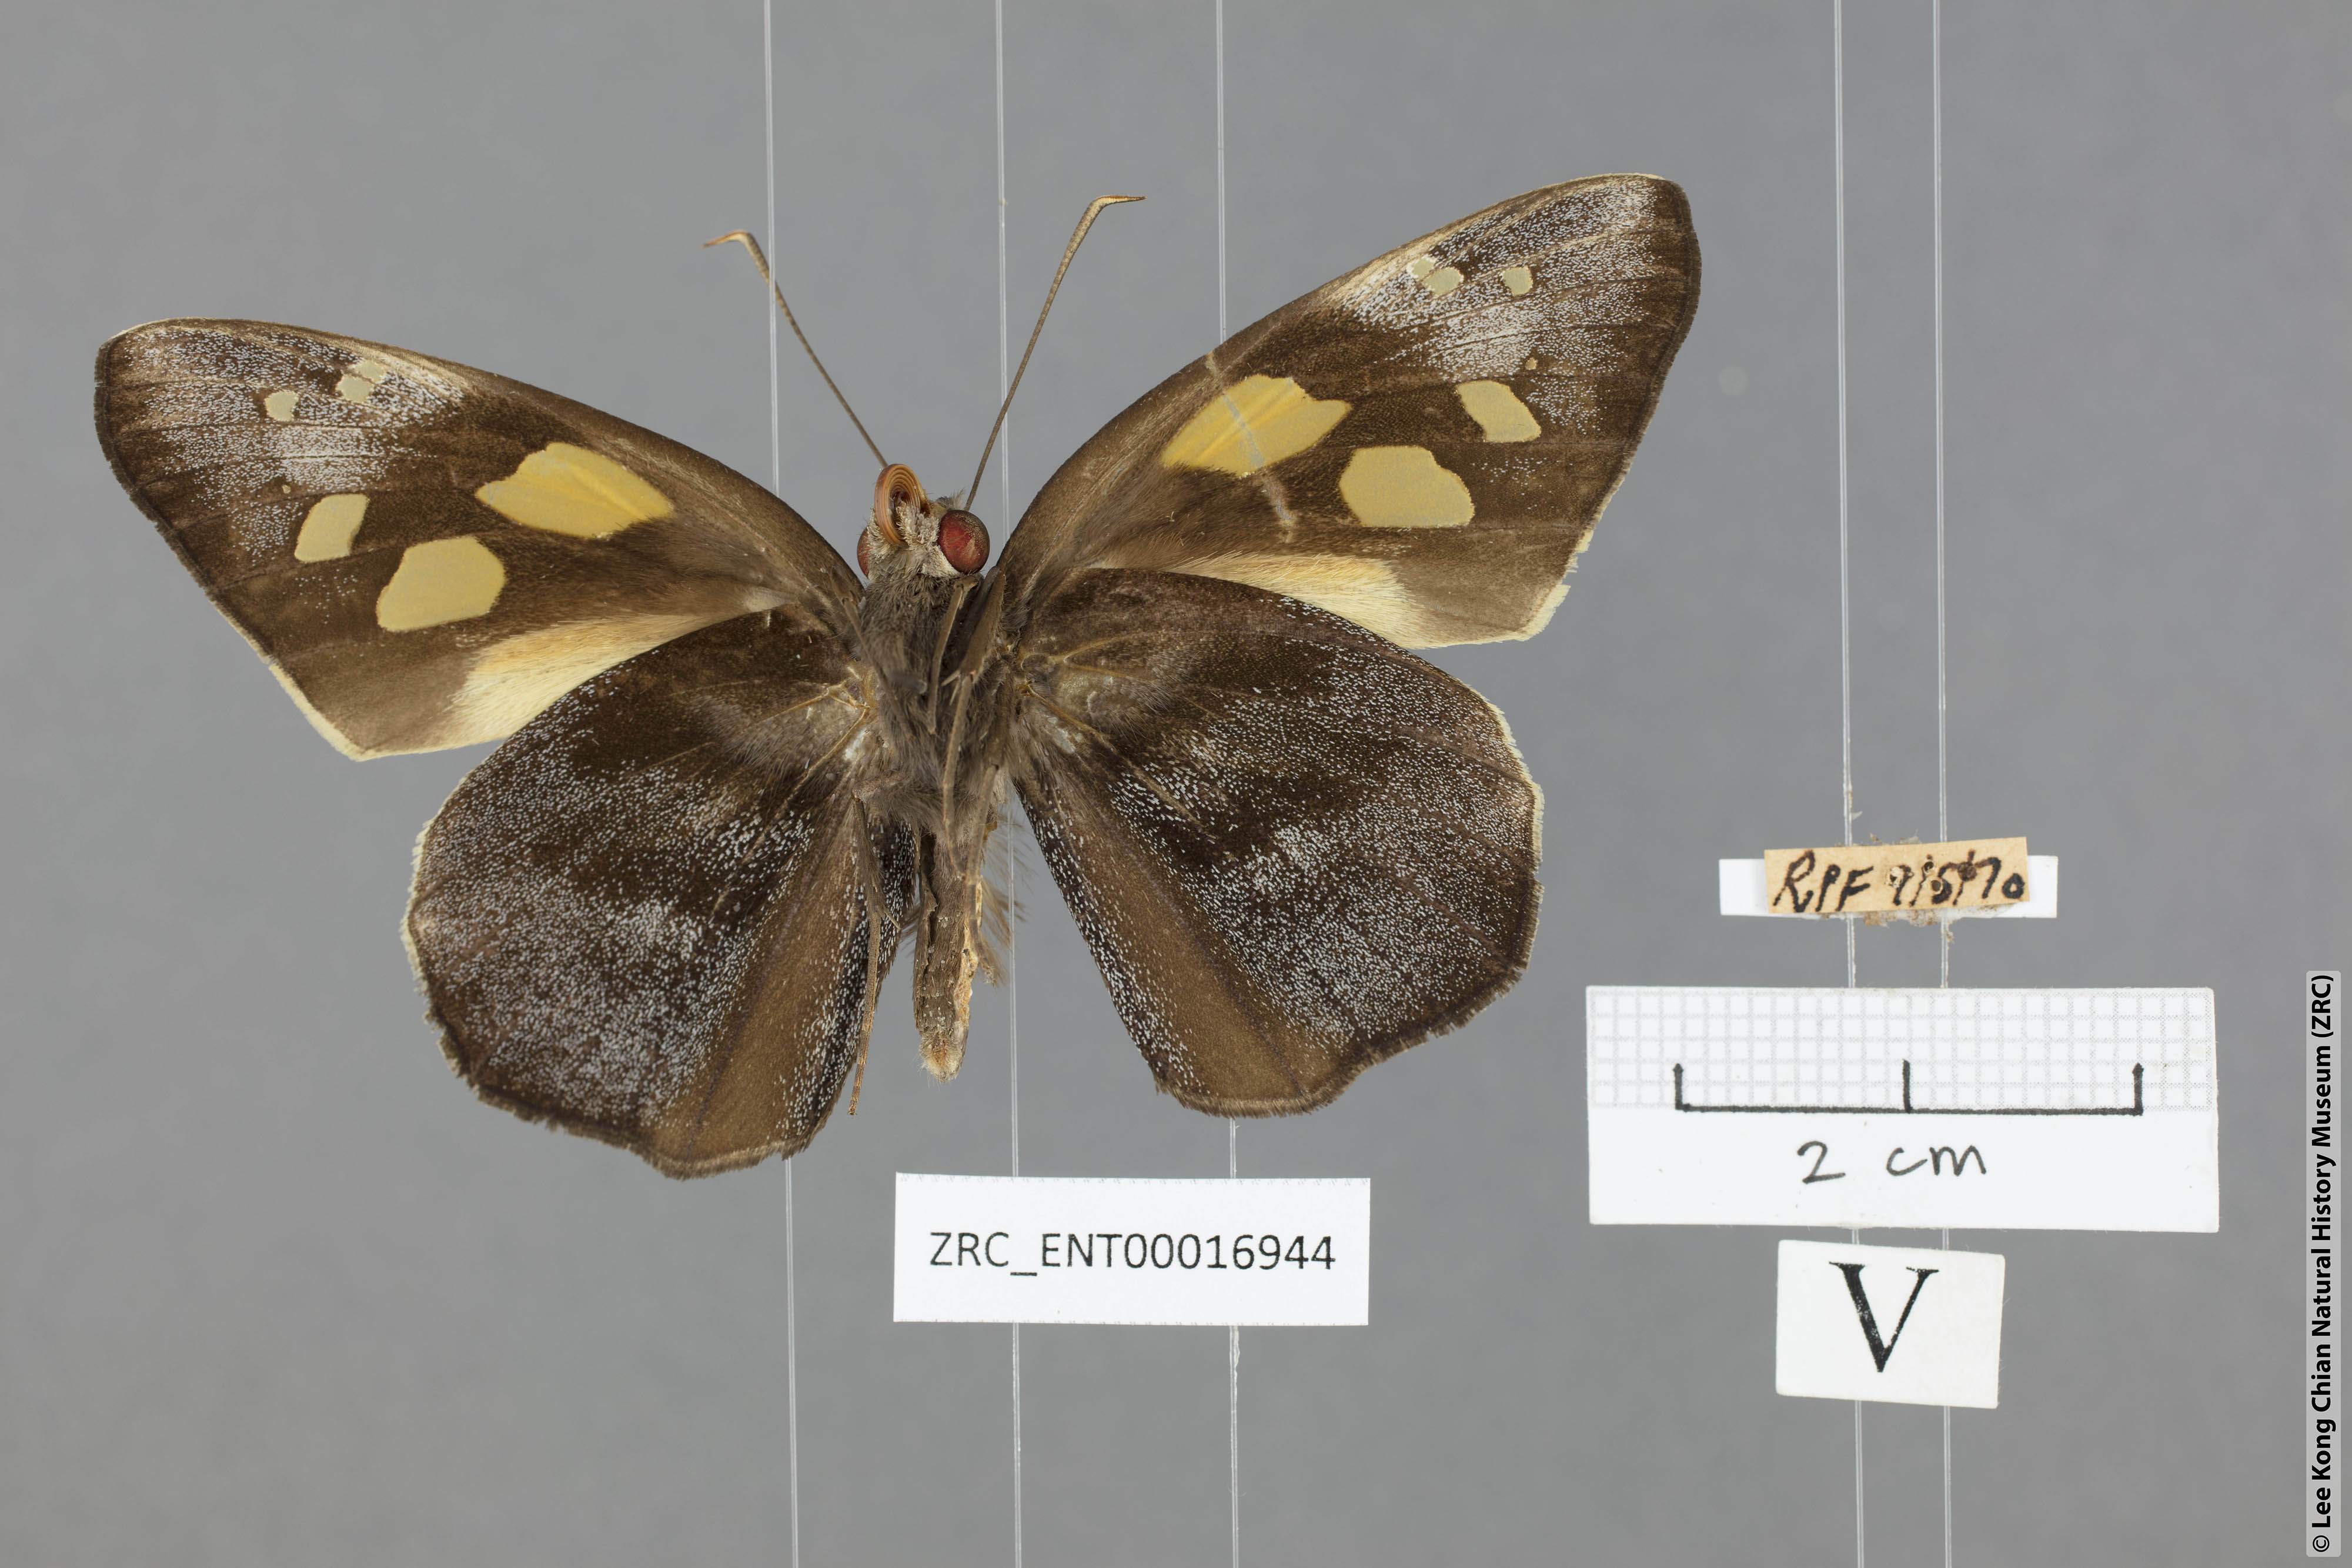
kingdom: Animalia
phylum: Arthropoda
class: Insecta
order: Lepidoptera
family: Hesperiidae
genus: Gangara
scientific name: Gangara thyrsis
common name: Giant redeye
